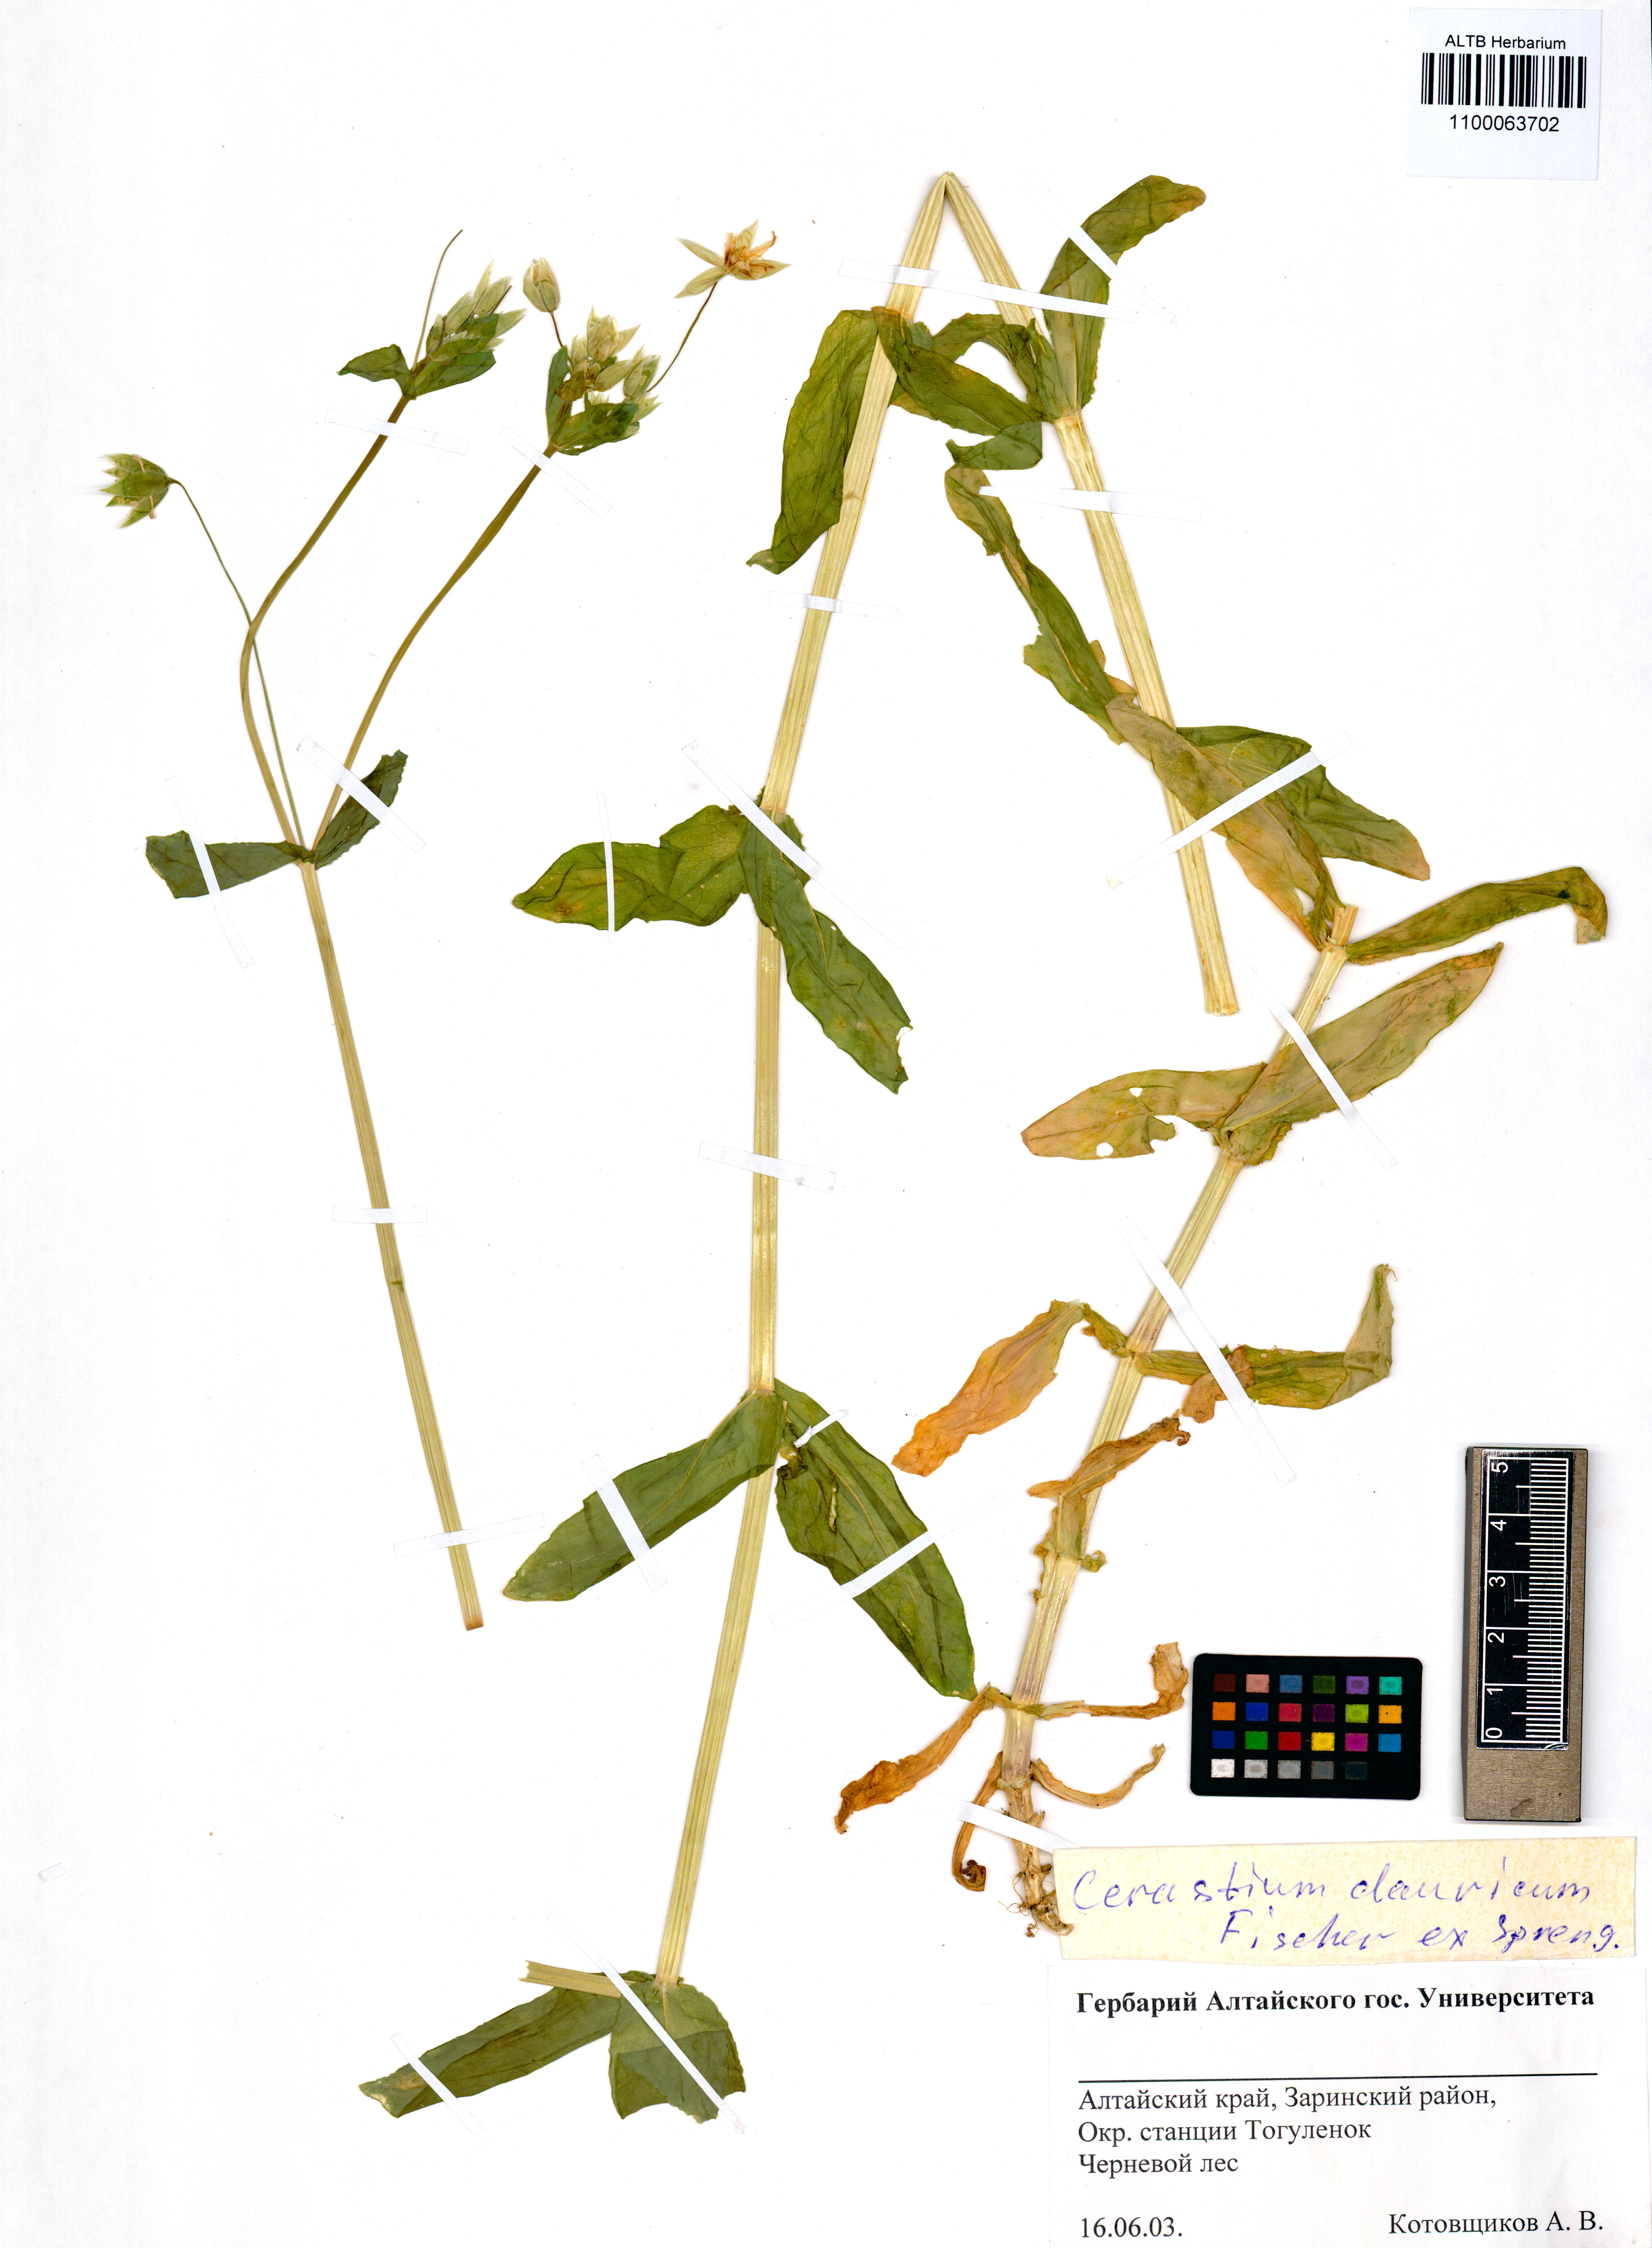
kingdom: Plantae
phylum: Tracheophyta
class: Magnoliopsida
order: Caryophyllales
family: Caryophyllaceae
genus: Dichodon
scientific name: Dichodon davuricum
